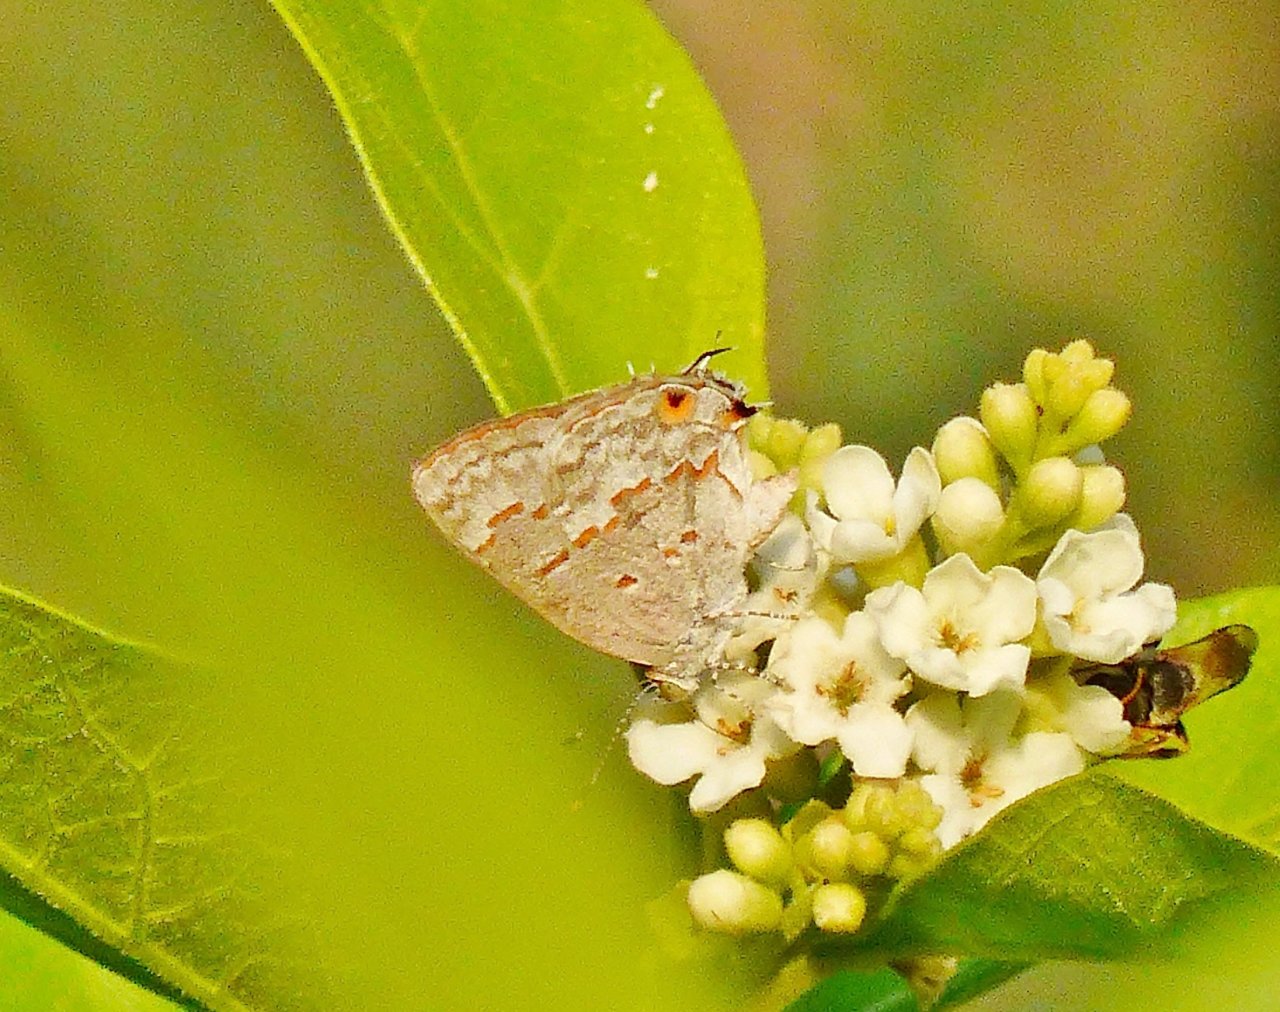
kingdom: Animalia
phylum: Arthropoda
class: Insecta
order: Lepidoptera
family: Lycaenidae
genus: Ministrymon
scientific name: Ministrymon clytie
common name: Clytie Ministreak
